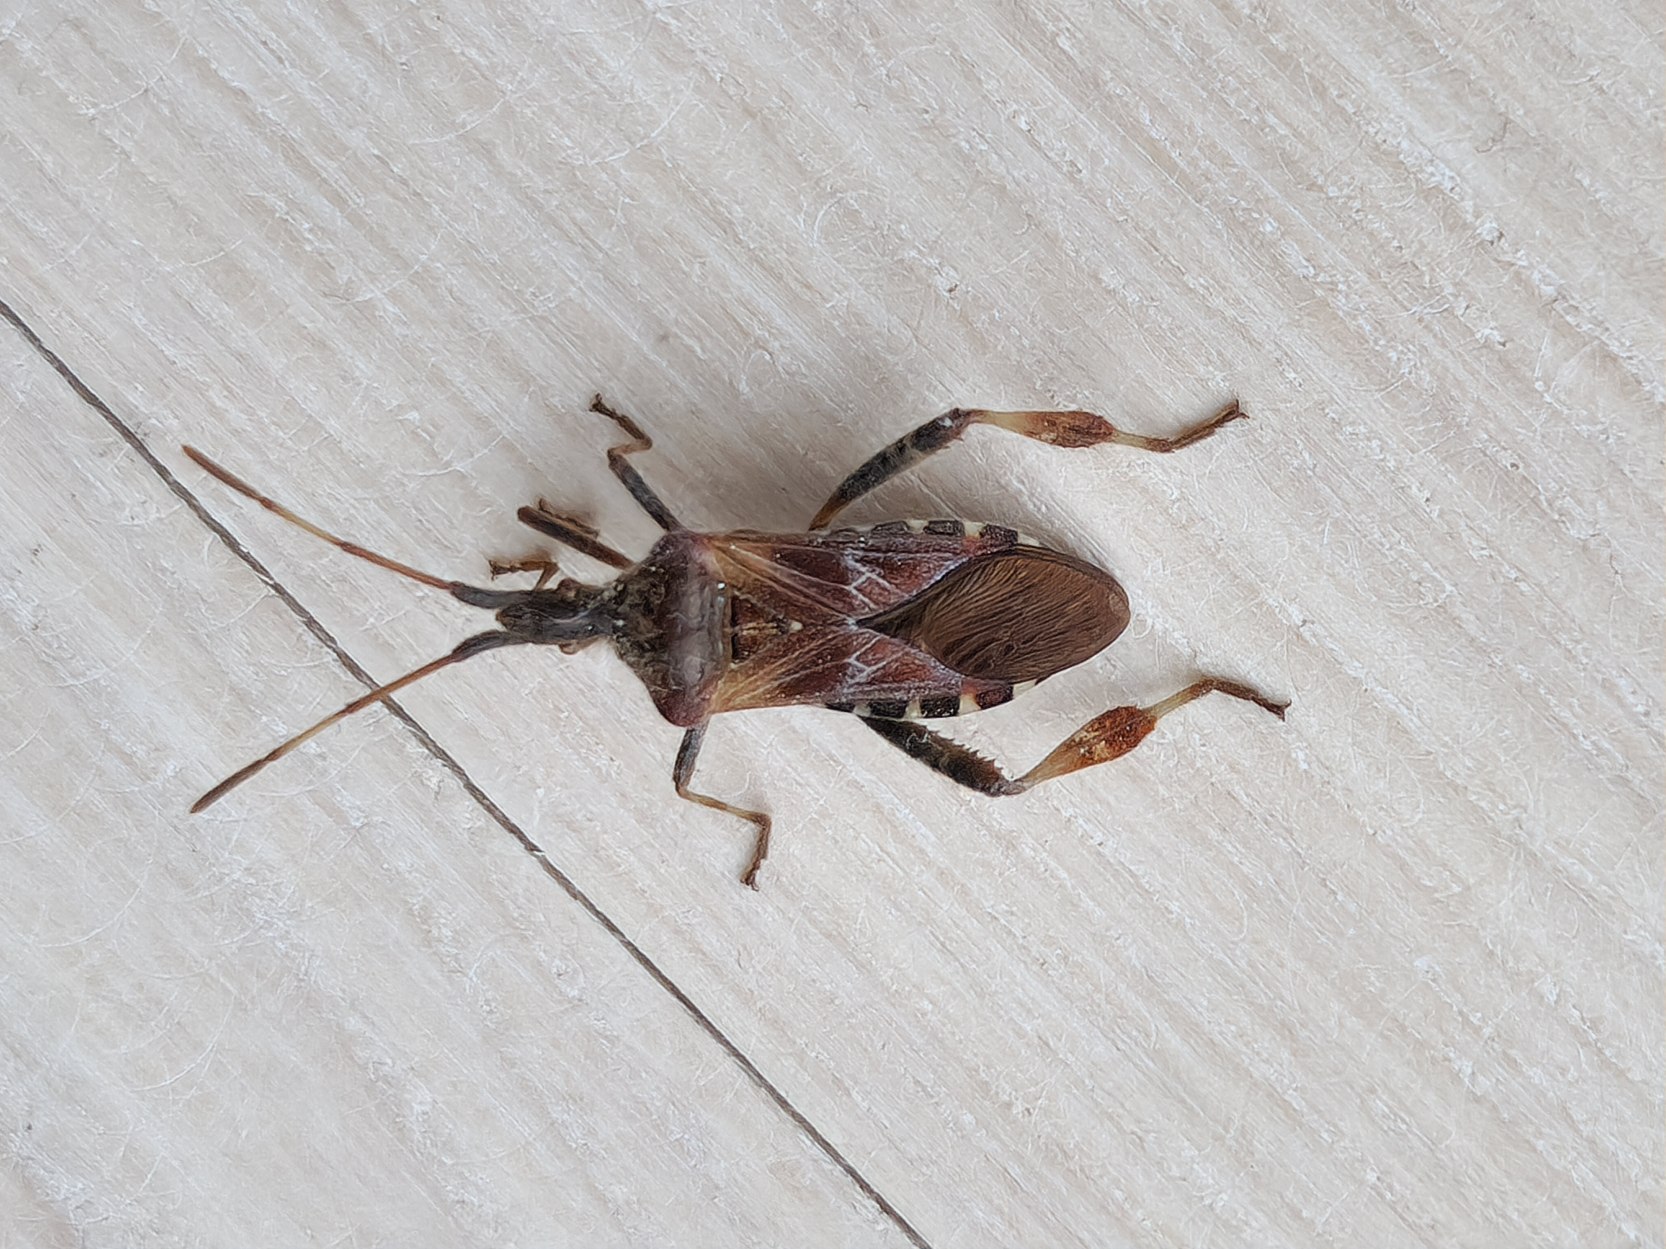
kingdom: Animalia
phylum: Arthropoda
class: Insecta
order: Hemiptera
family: Coreidae
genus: Leptoglossus
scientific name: Leptoglossus occidentalis
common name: Amerikansk fyrretæge
